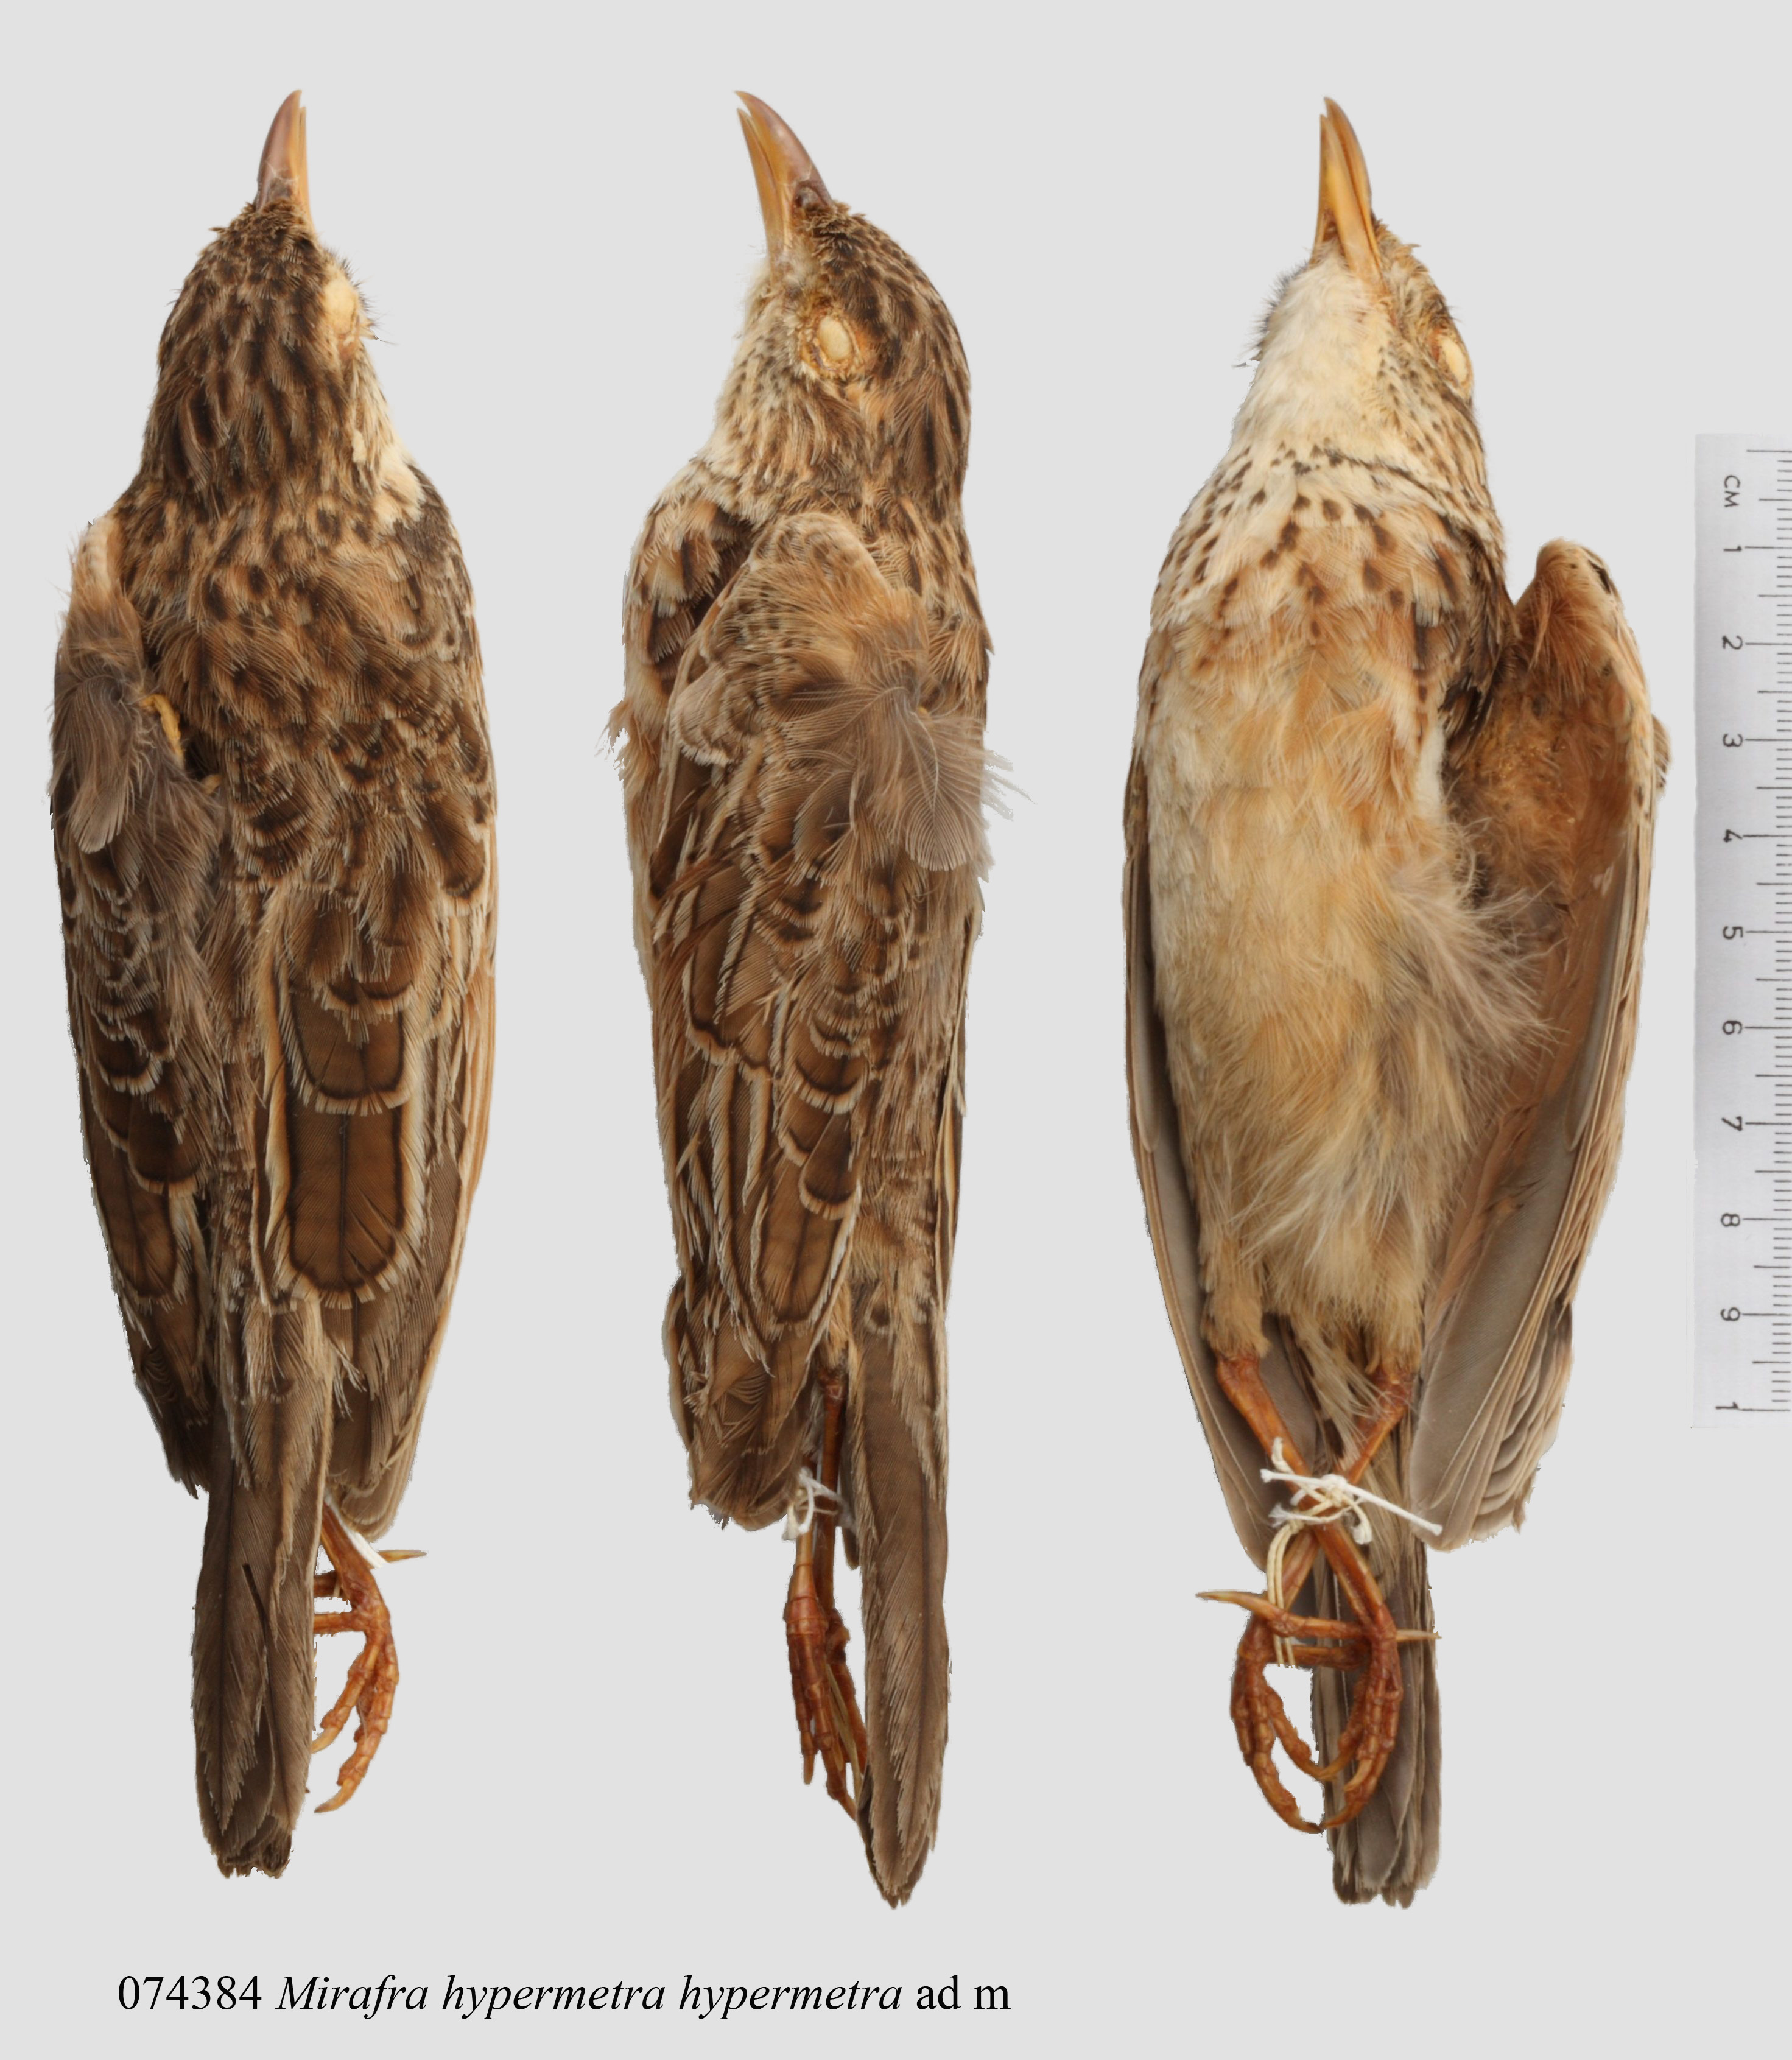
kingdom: Animalia
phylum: Chordata
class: Aves
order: Passeriformes
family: Alaudidae
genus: Mirafra
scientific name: Mirafra hypermetra
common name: Red-winged lark
